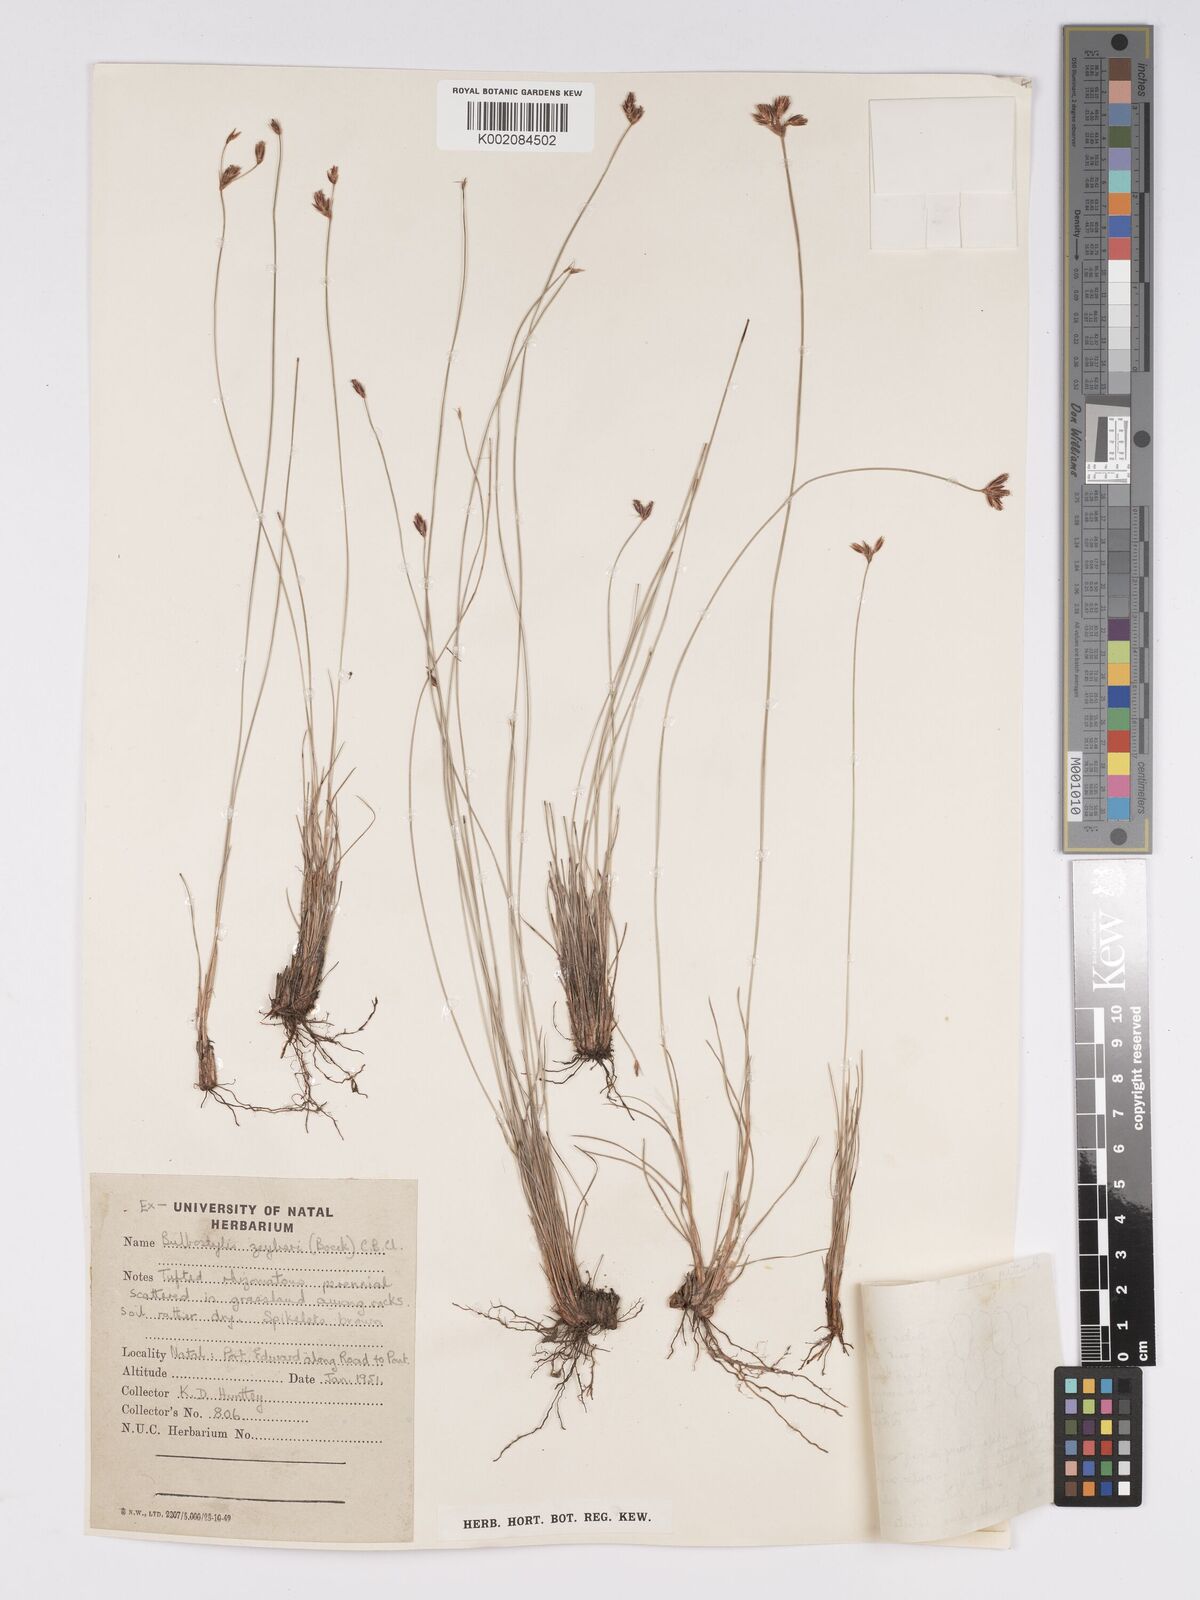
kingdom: Plantae
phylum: Tracheophyta
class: Liliopsida
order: Poales
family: Cyperaceae
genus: Bulbostylis
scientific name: Bulbostylis contexta
